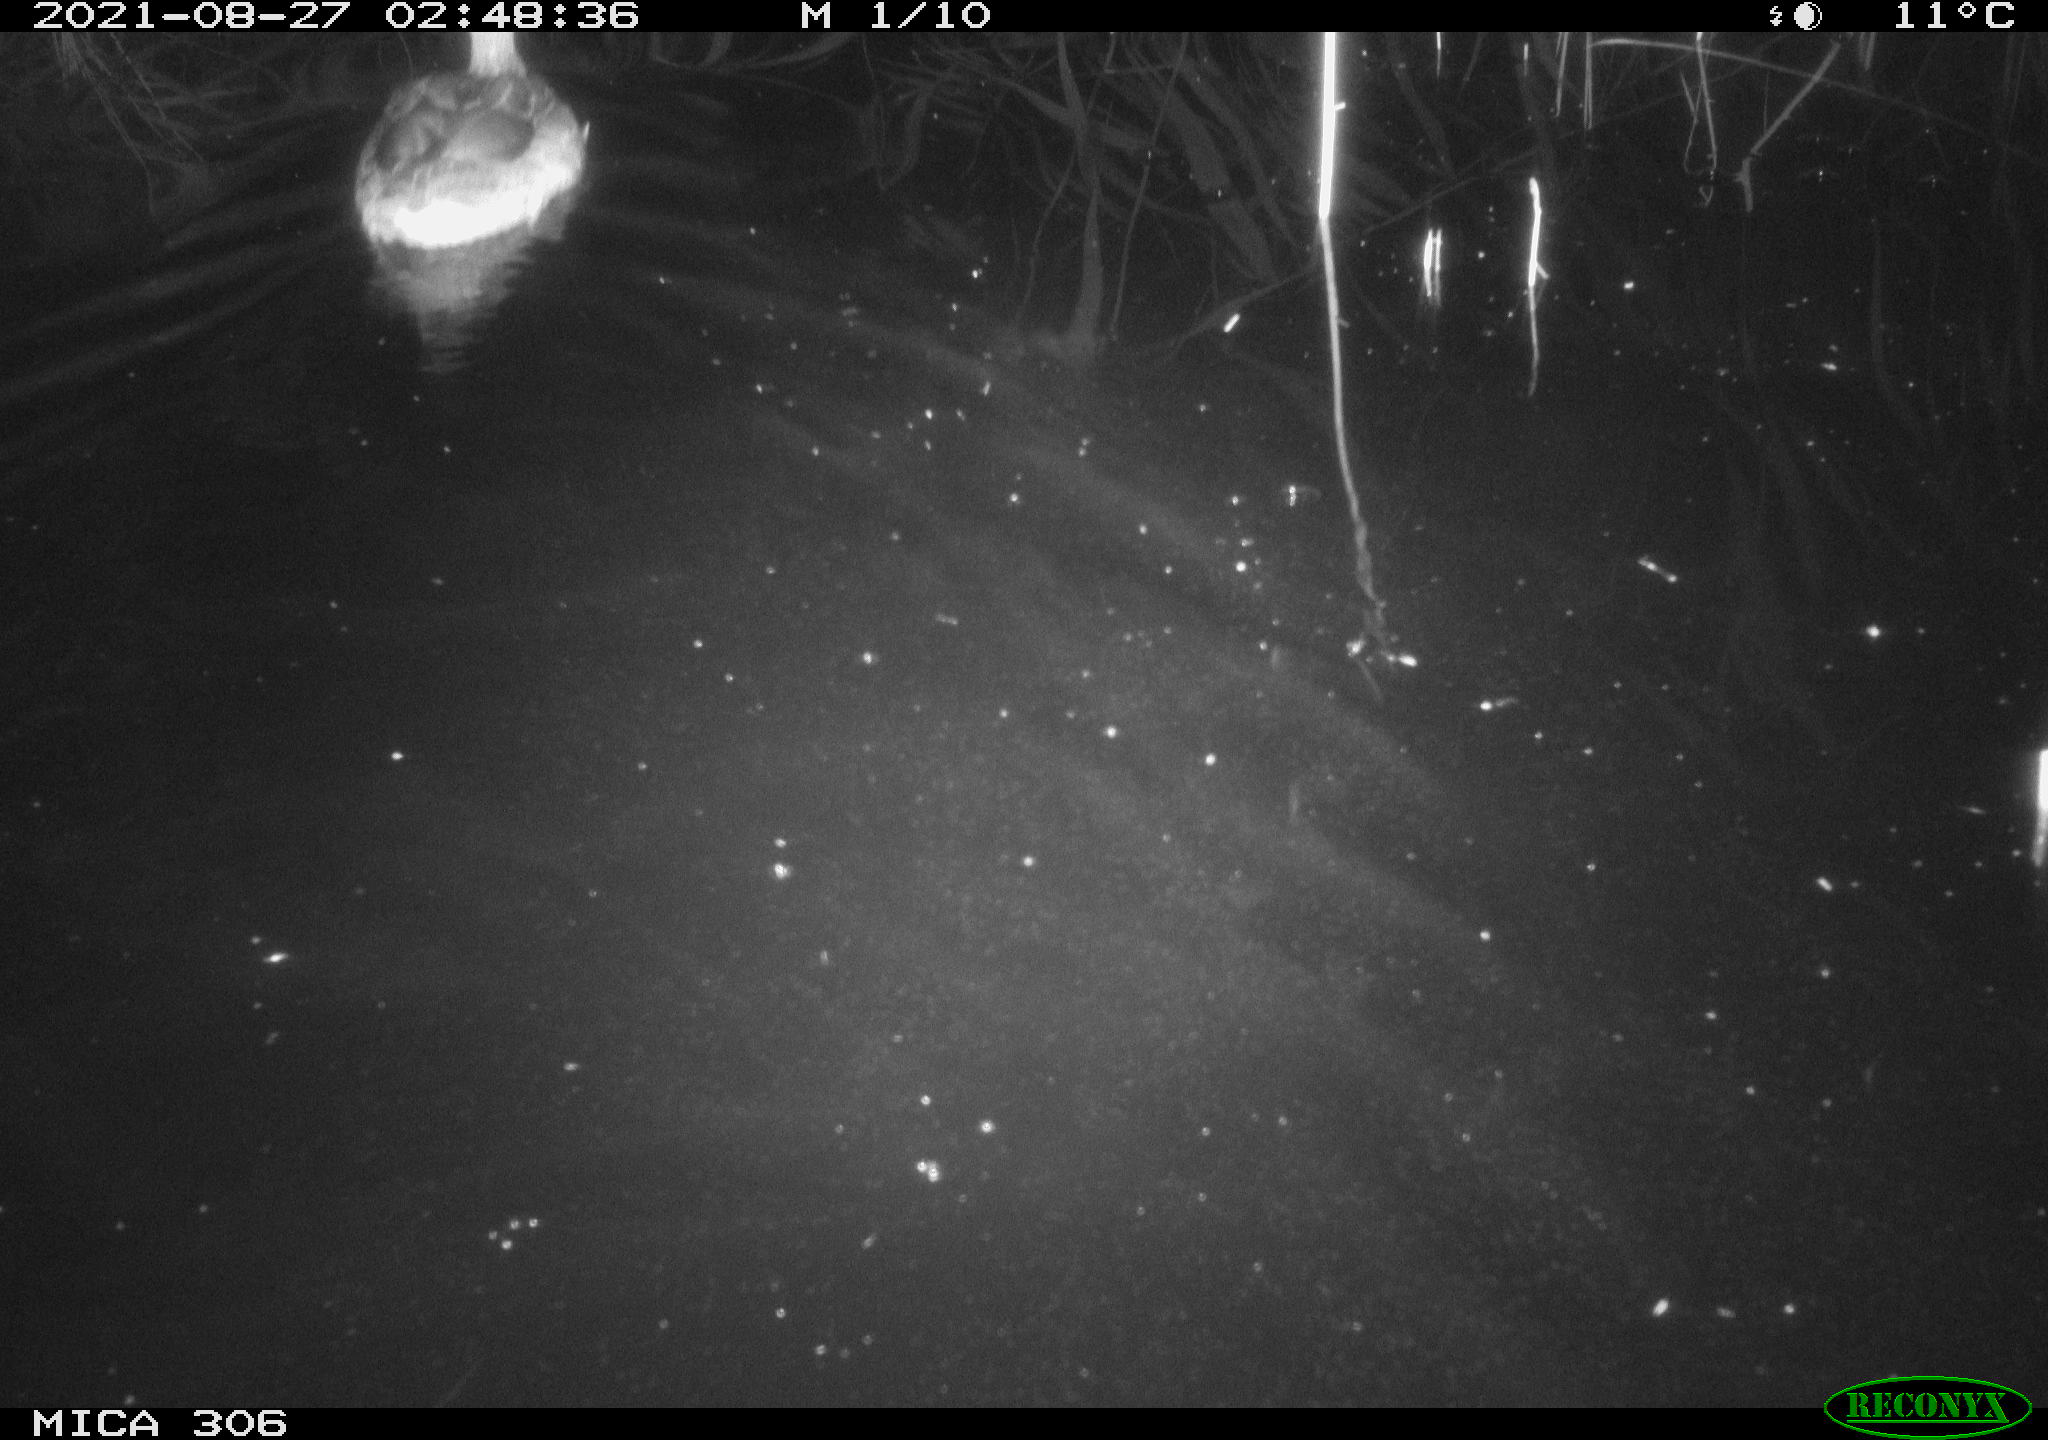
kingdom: Animalia
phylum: Chordata
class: Aves
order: Anseriformes
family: Anatidae
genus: Anas
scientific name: Anas platyrhynchos
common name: Mallard
